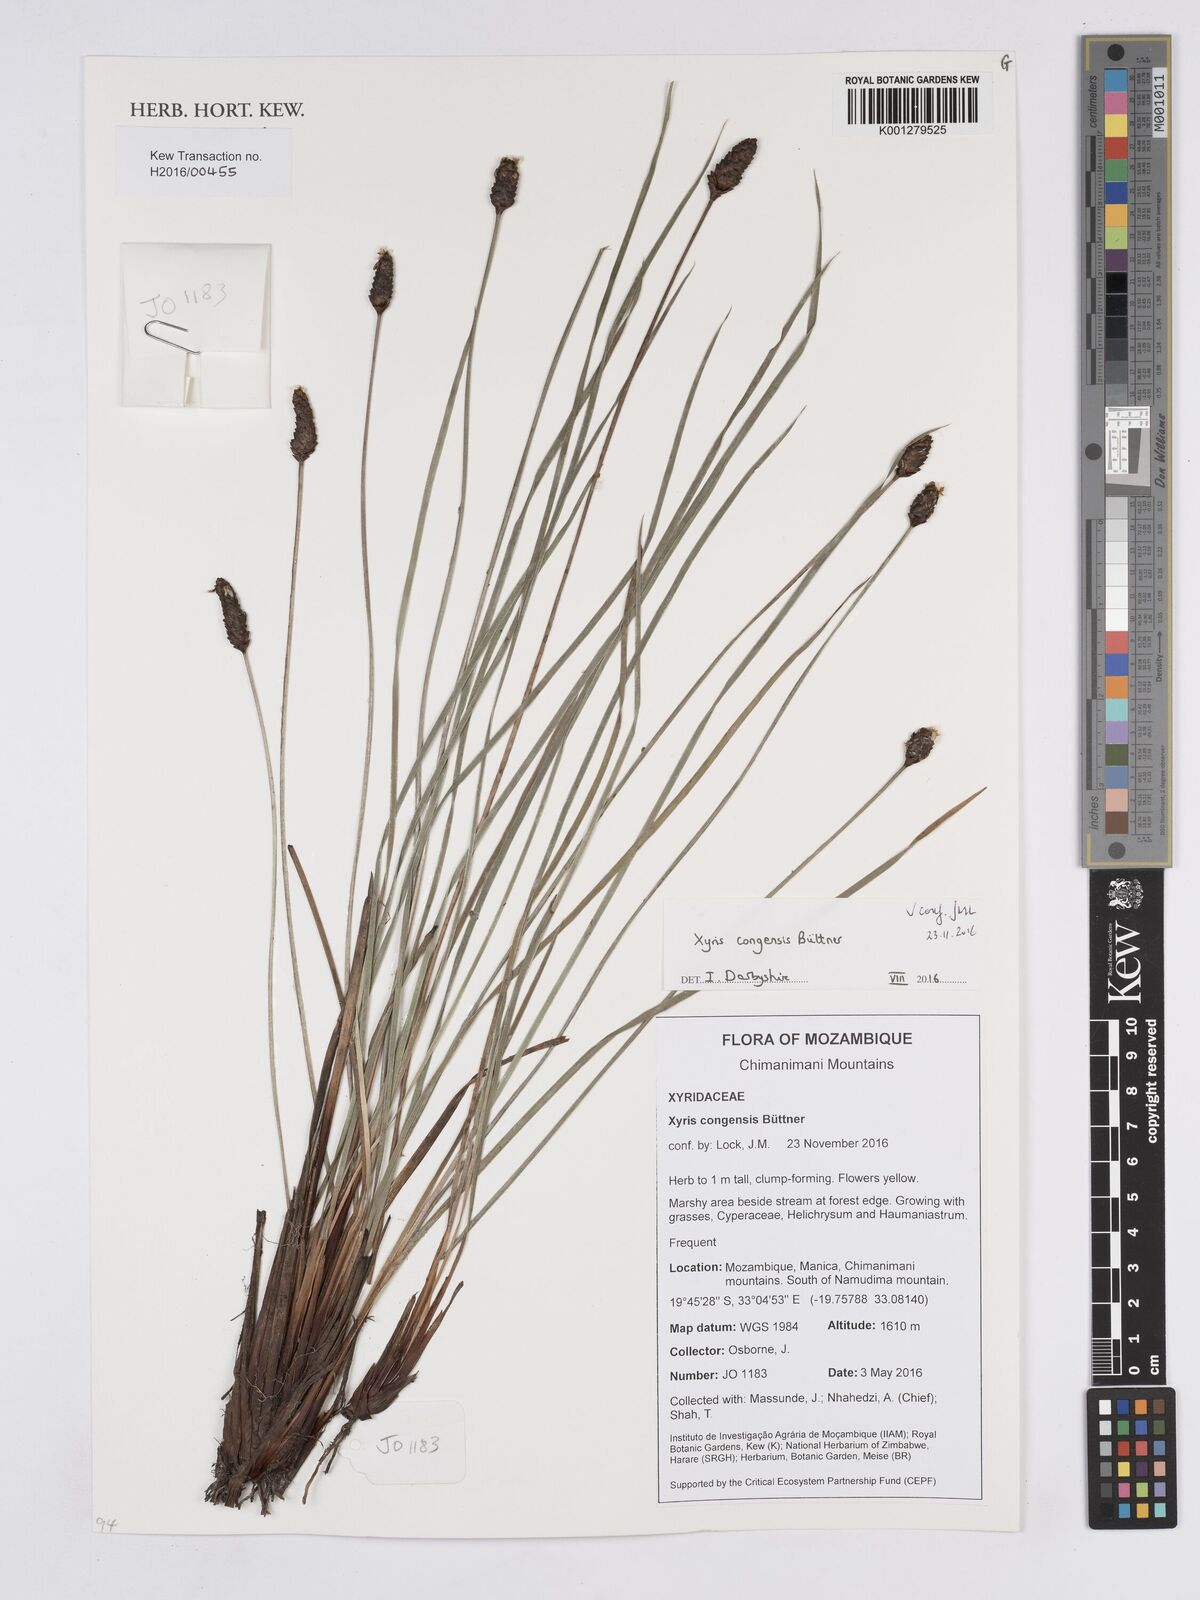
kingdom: Plantae
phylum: Tracheophyta
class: Liliopsida
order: Poales
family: Xyridaceae
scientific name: Xyridaceae
